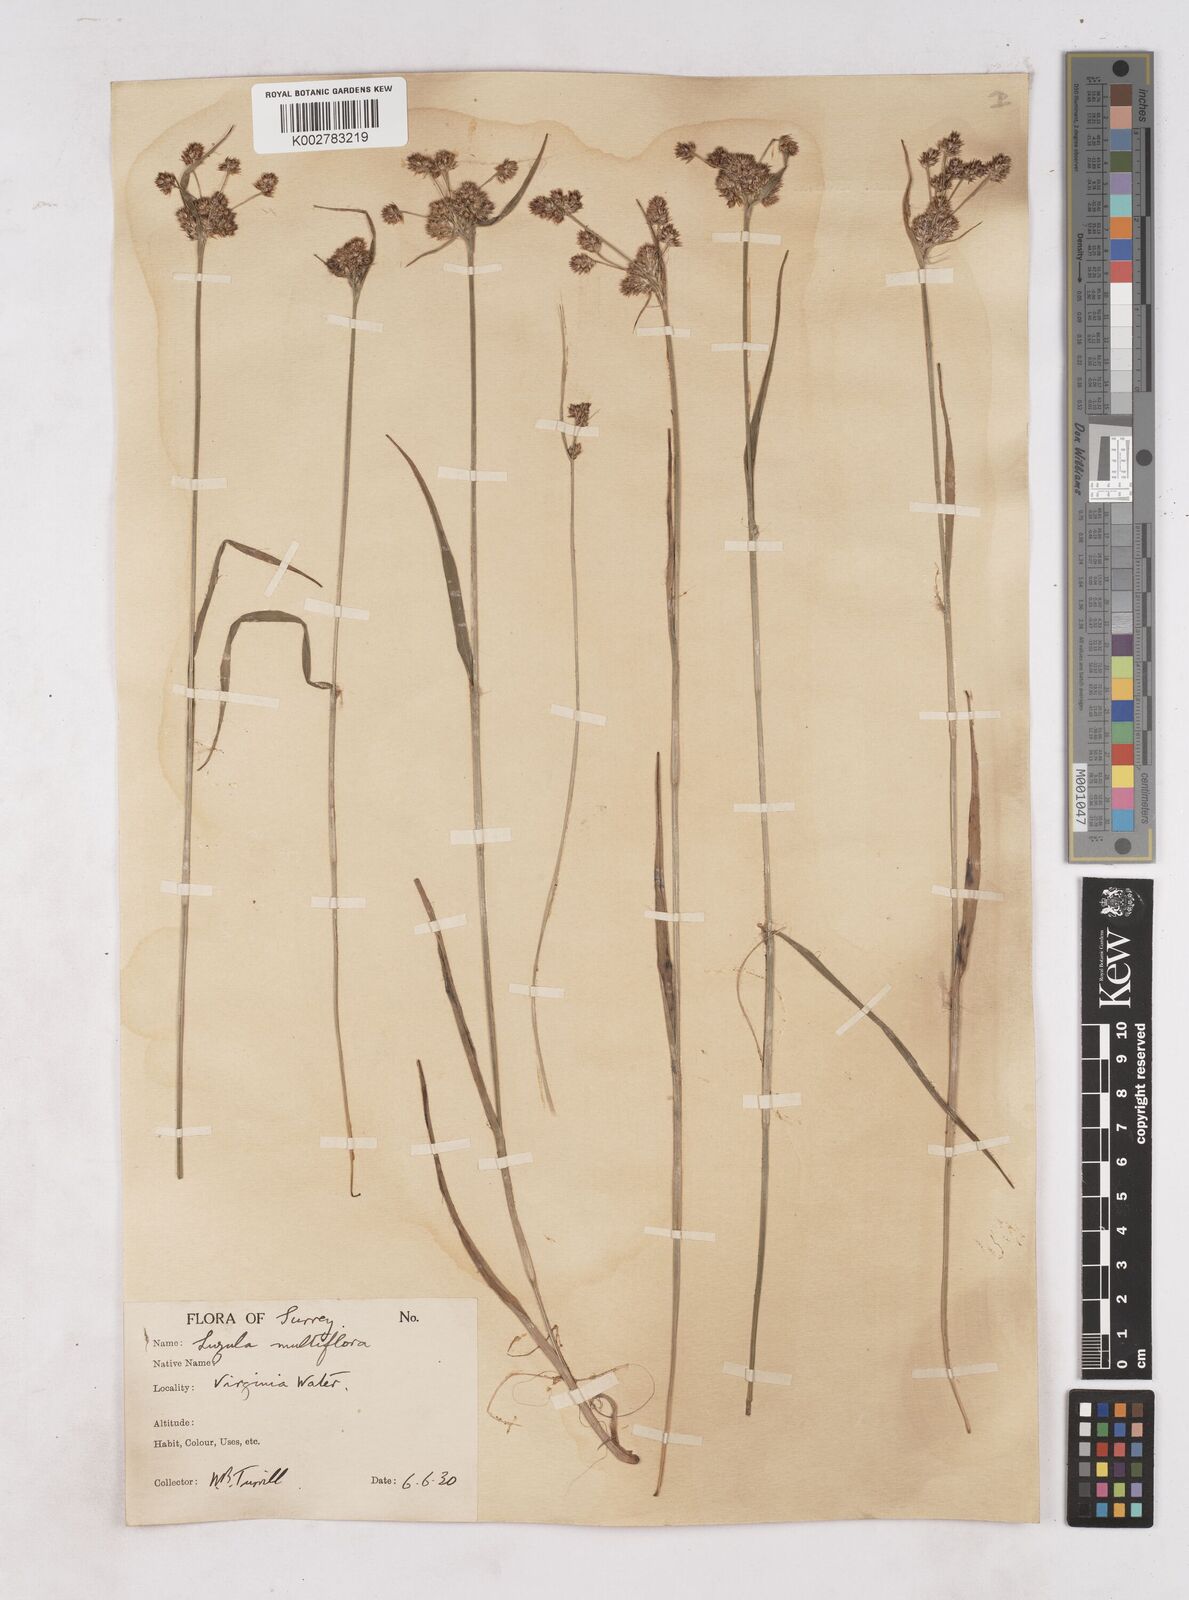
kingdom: Plantae
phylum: Tracheophyta
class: Liliopsida
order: Poales
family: Juncaceae
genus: Luzula
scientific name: Luzula multiflora
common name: Heath wood-rush
